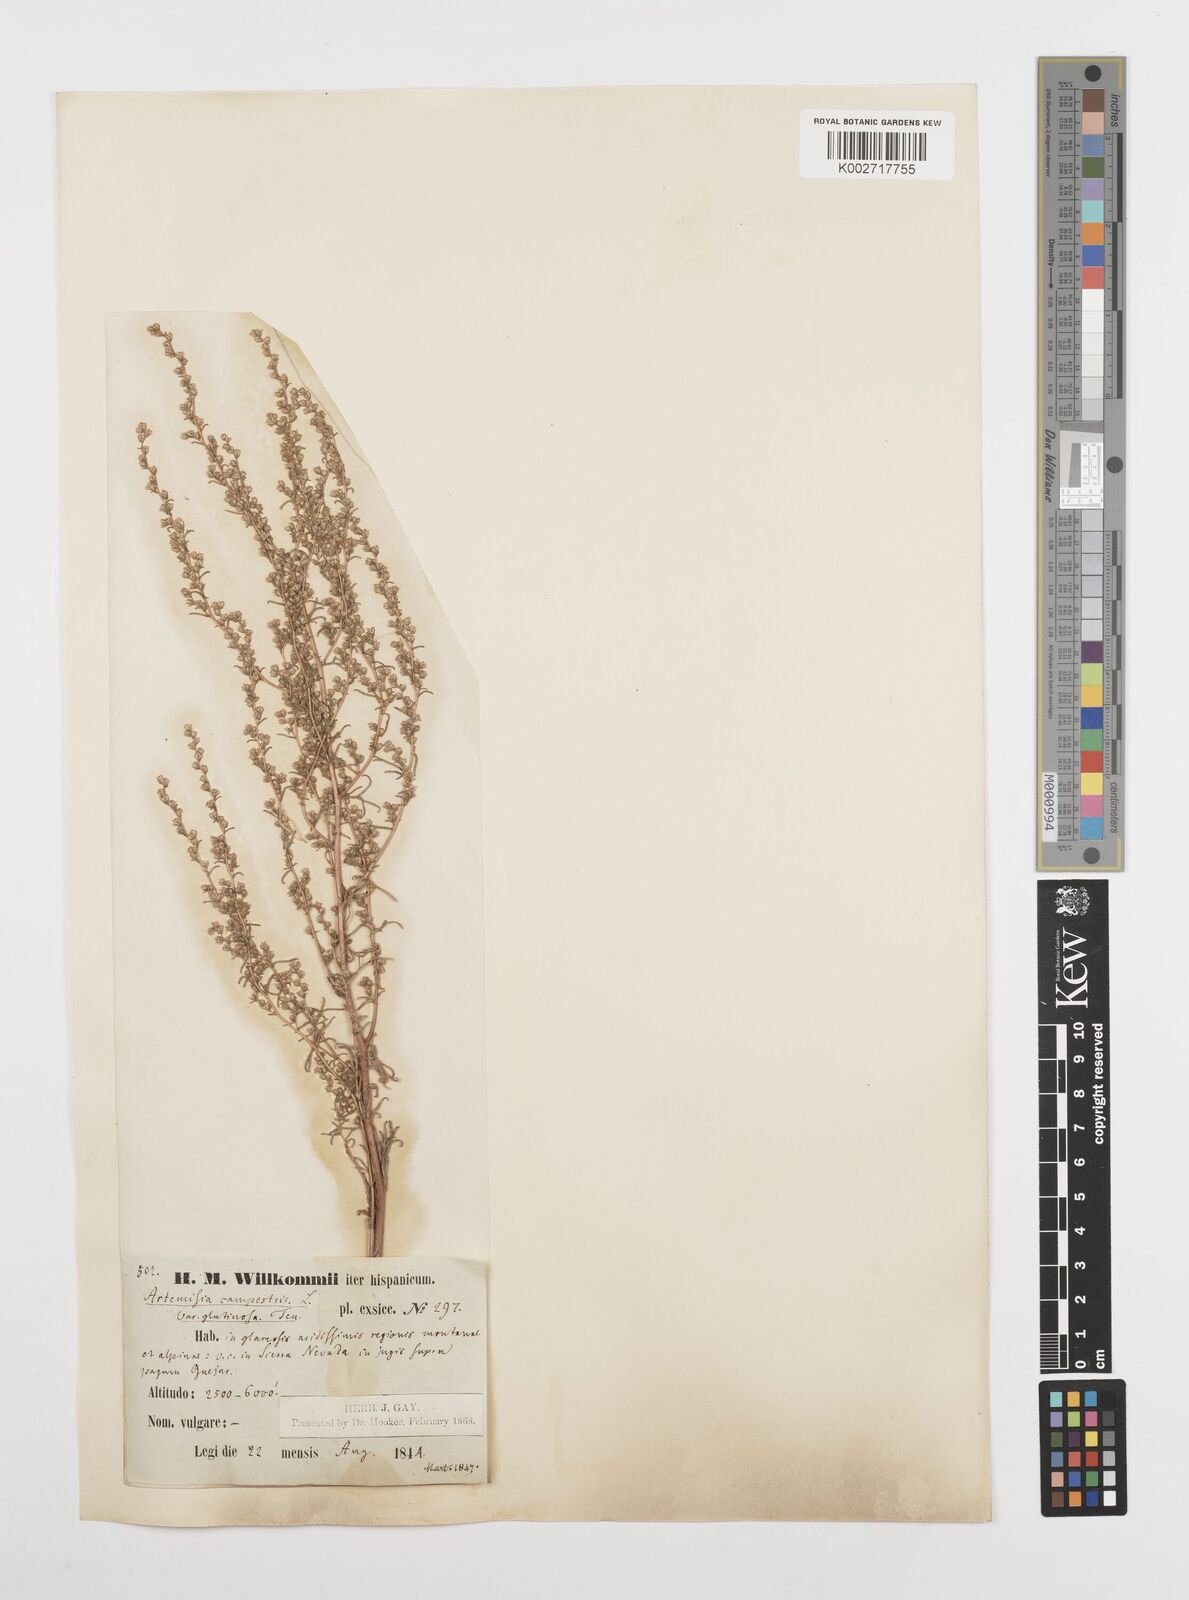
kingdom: Plantae
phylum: Tracheophyta
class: Magnoliopsida
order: Asterales
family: Asteraceae
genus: Artemisia
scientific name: Artemisia campestris
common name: Field wormwood
